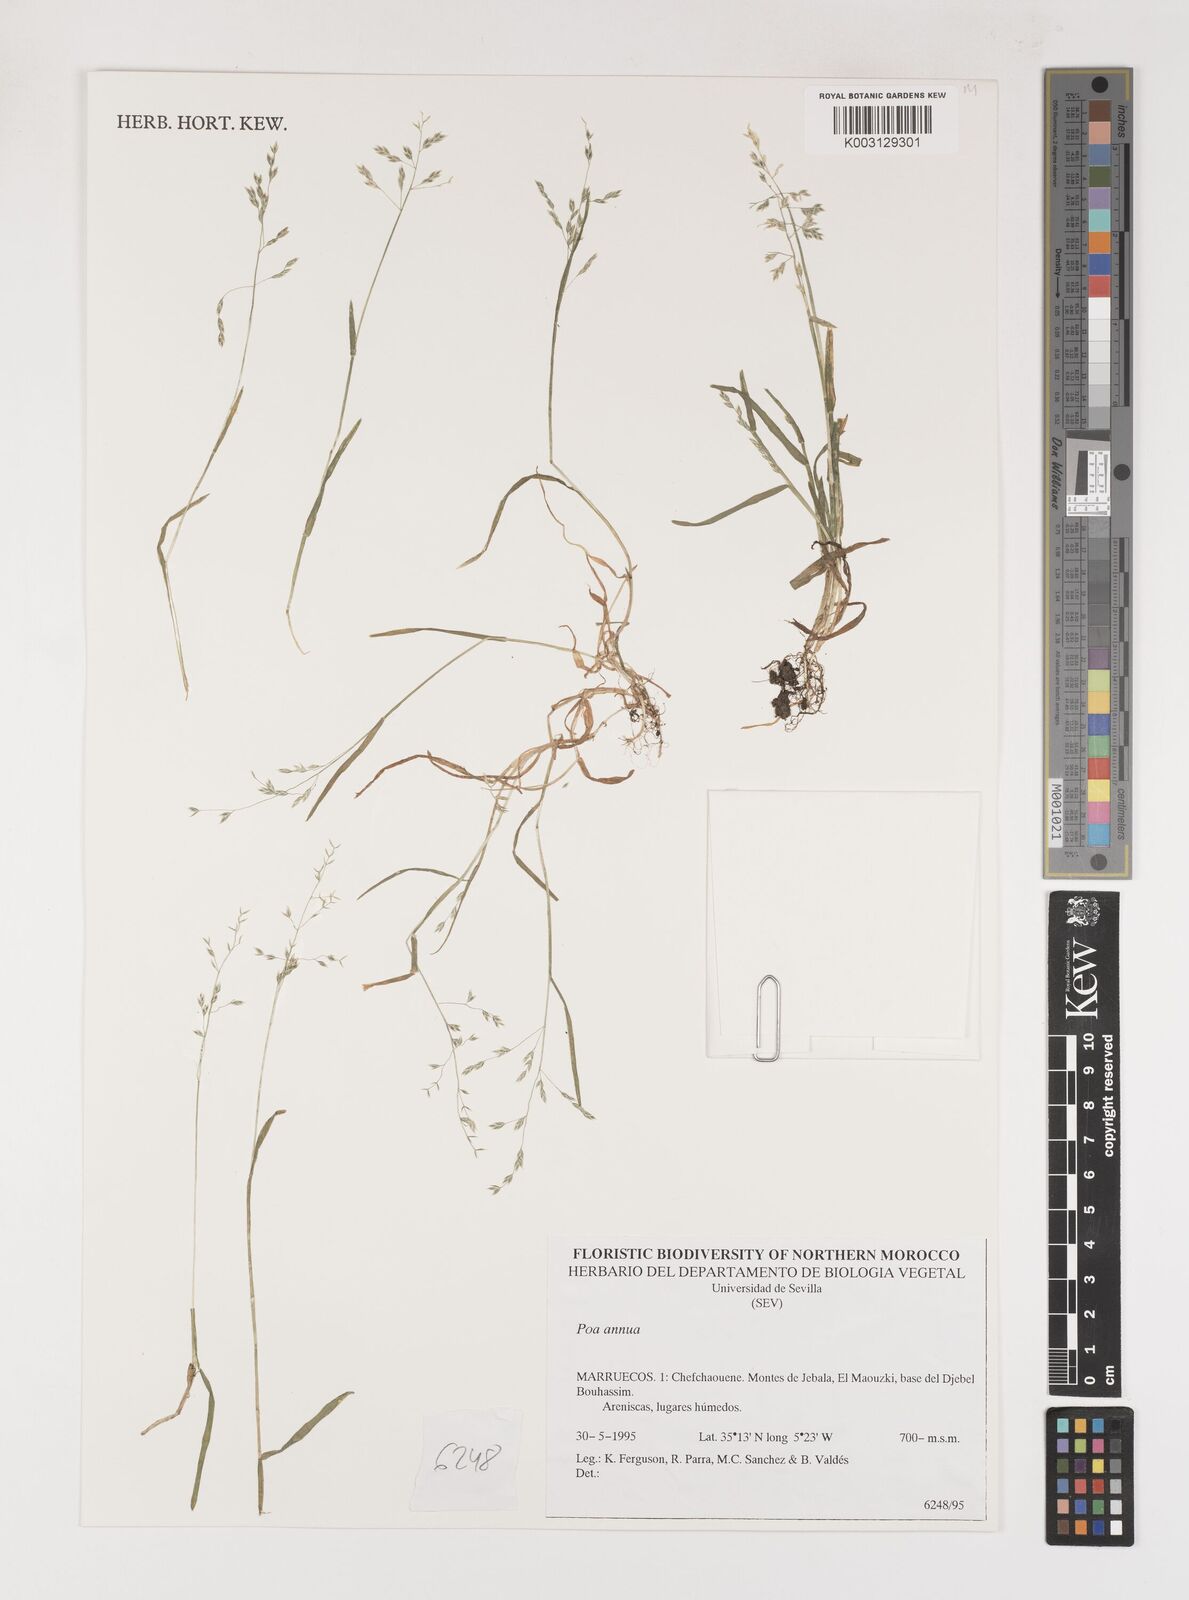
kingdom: Plantae
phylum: Tracheophyta
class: Liliopsida
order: Poales
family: Poaceae
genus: Poa
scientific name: Poa annua
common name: Annual bluegrass
